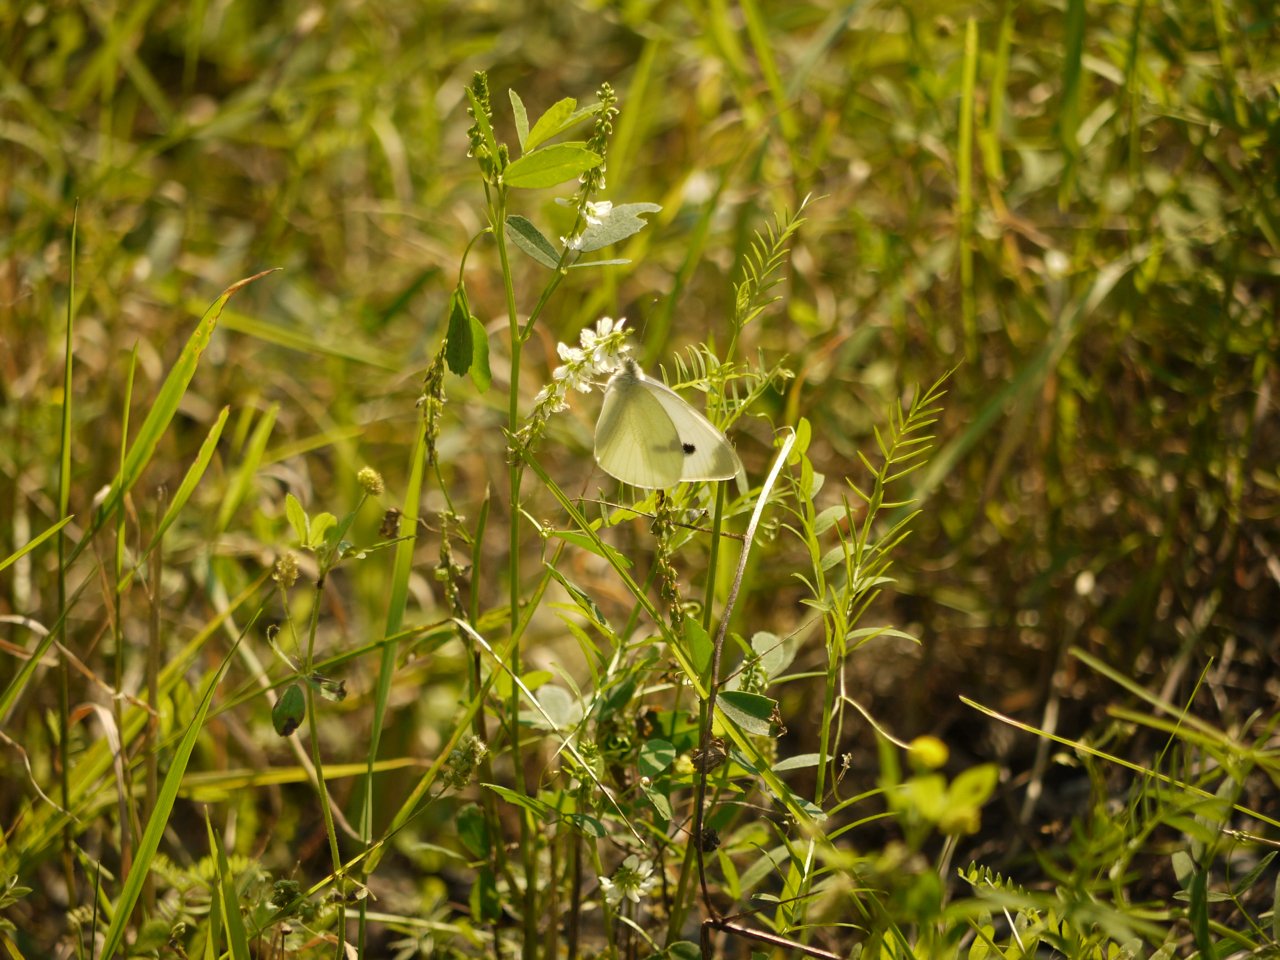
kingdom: Animalia
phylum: Arthropoda
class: Insecta
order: Lepidoptera
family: Pieridae
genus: Pieris
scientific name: Pieris rapae
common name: Cabbage White
